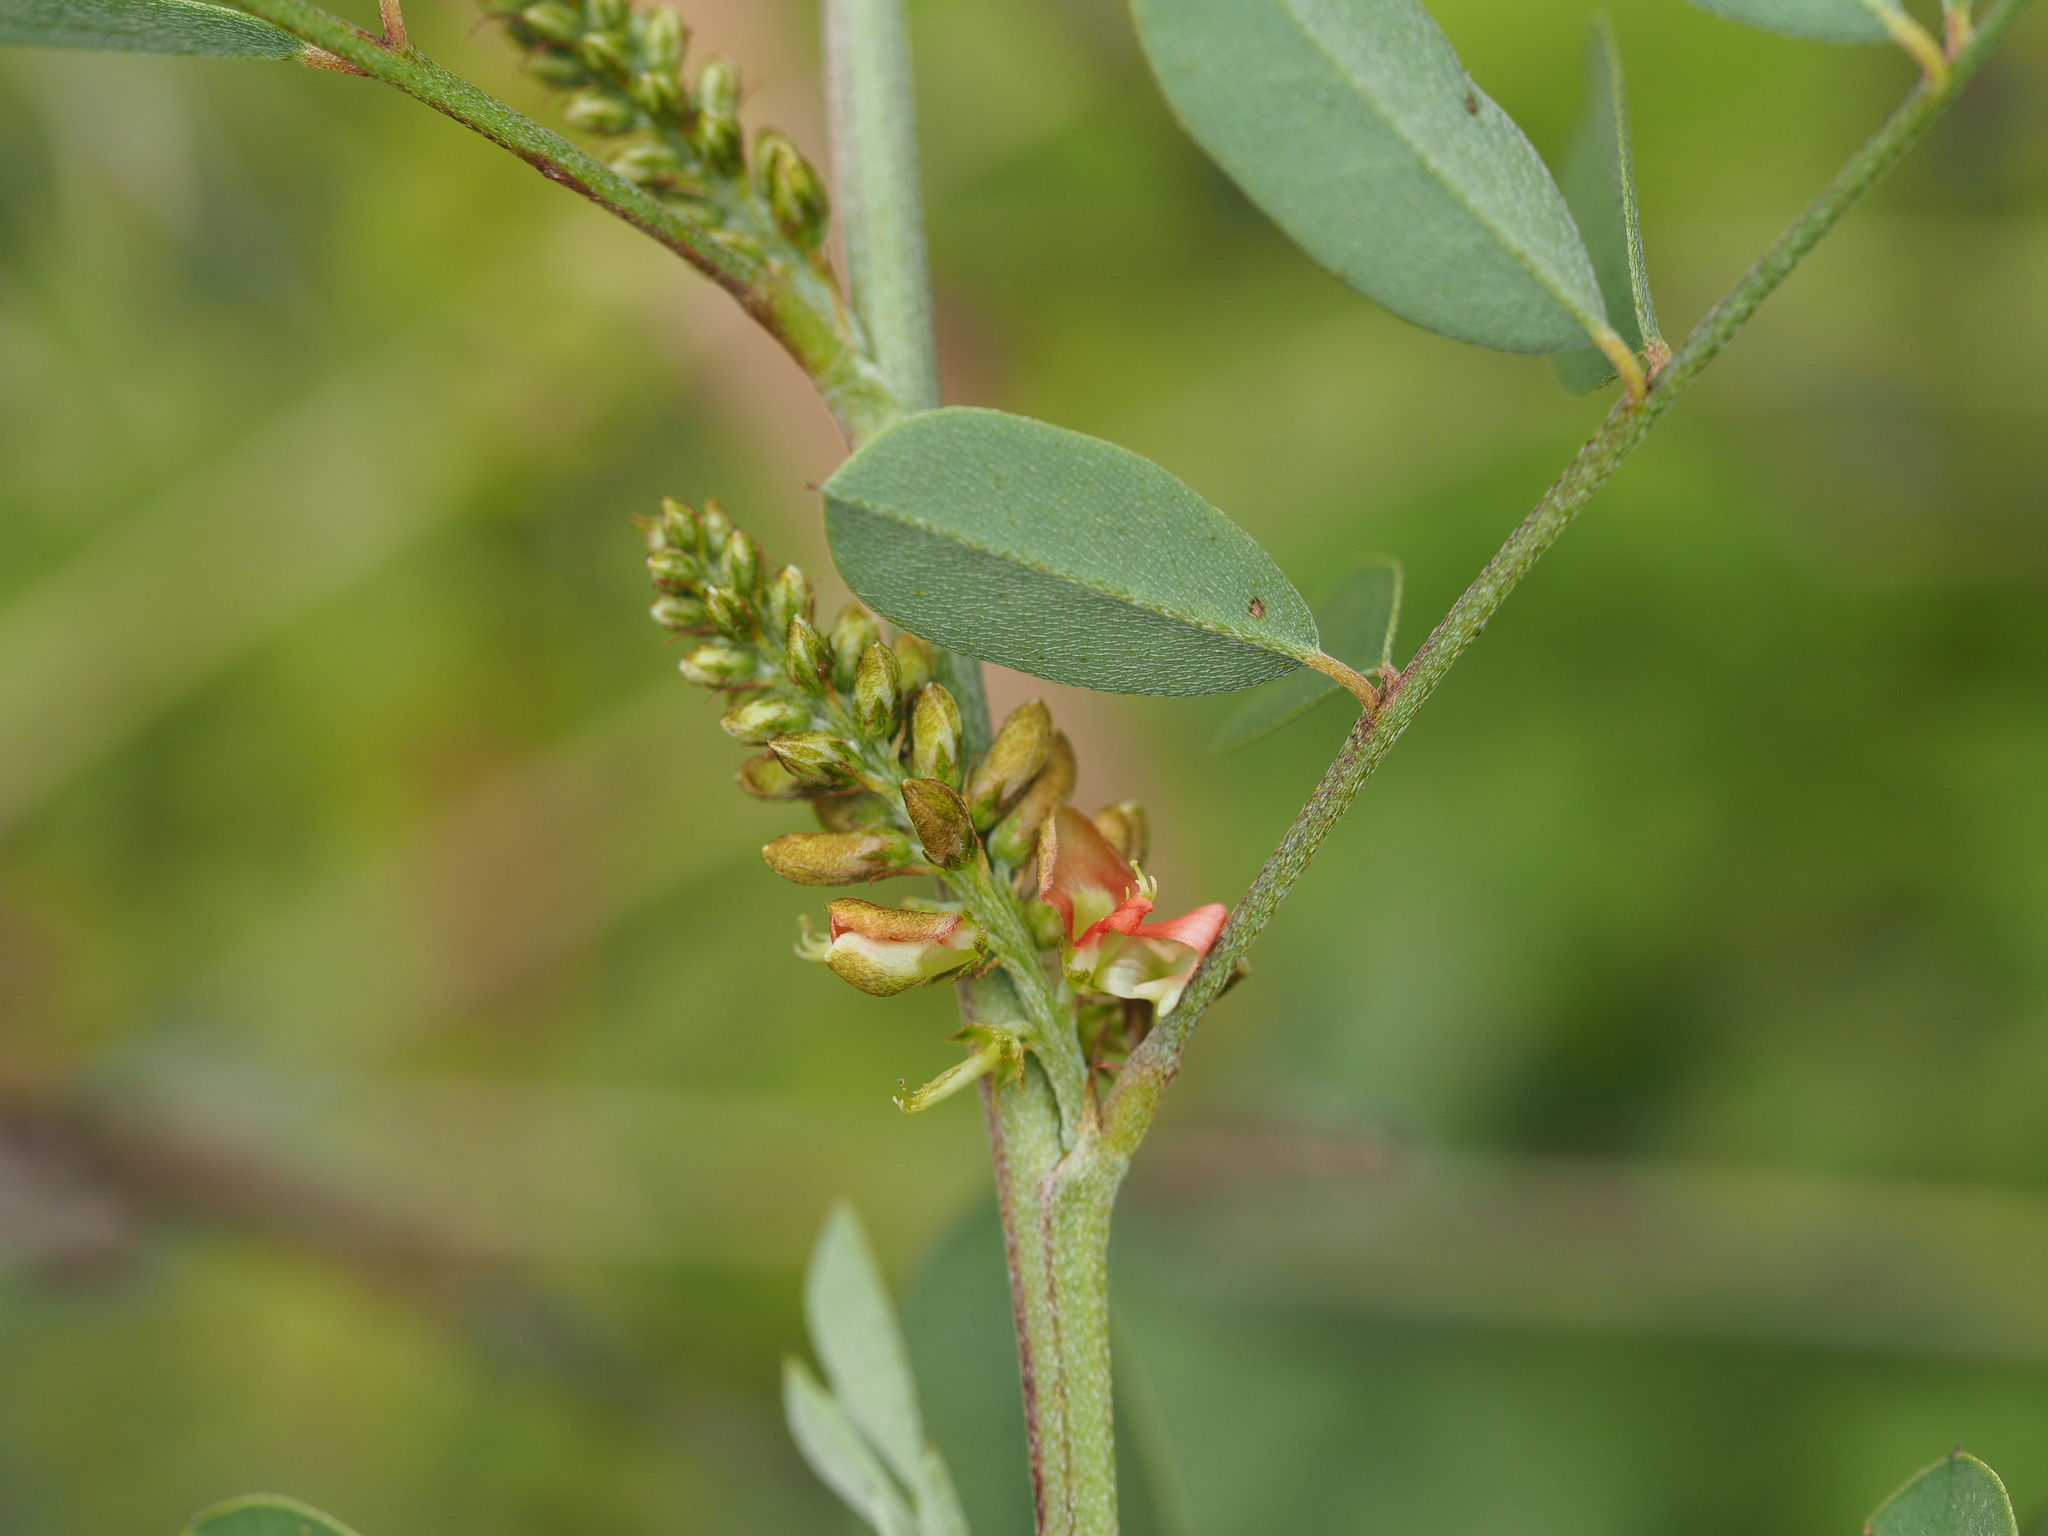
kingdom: Plantae
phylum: Tracheophyta
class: Magnoliopsida
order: Fabales
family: Fabaceae
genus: Indigofera
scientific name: Indigofera suffruticosa
